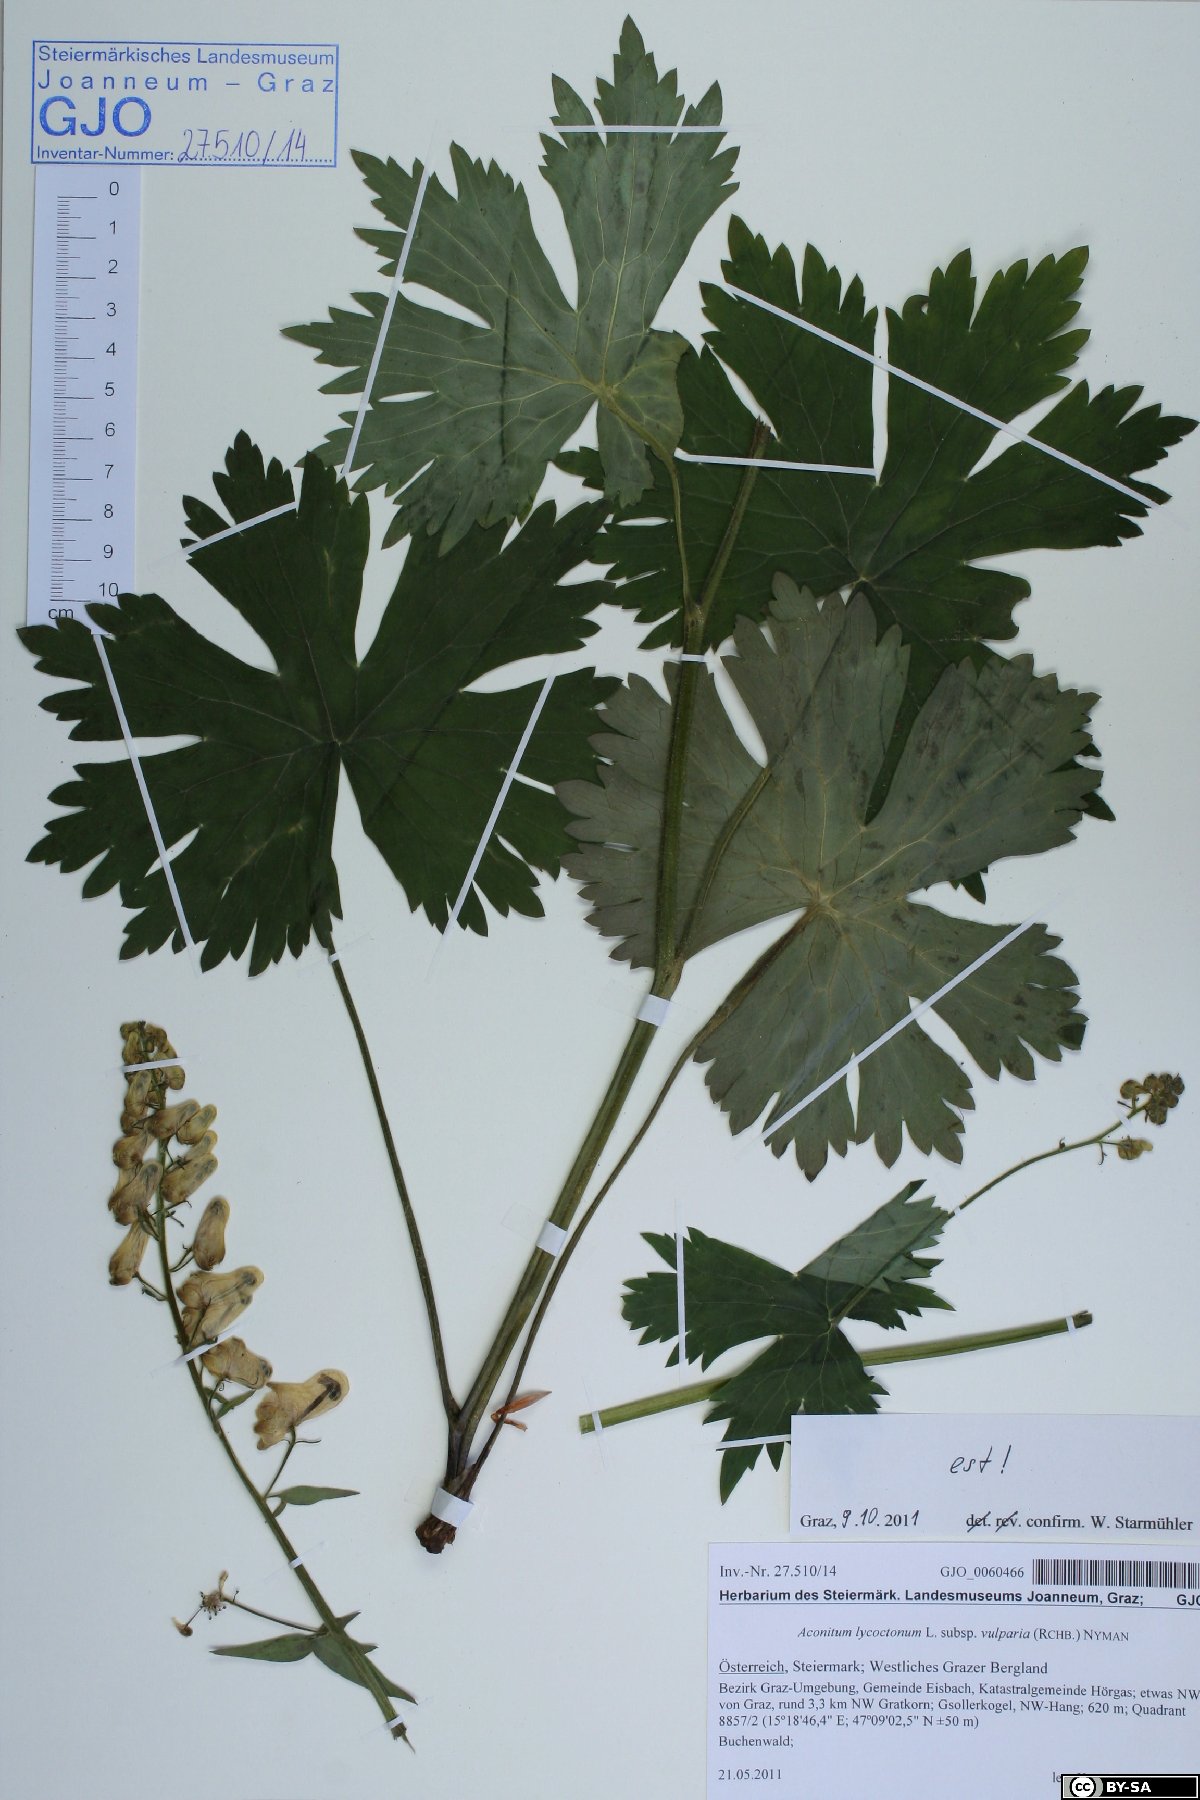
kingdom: Plantae
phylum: Tracheophyta
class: Magnoliopsida
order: Ranunculales
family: Ranunculaceae
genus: Aconitum
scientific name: Aconitum lycoctonum
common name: Wolf's-bane
